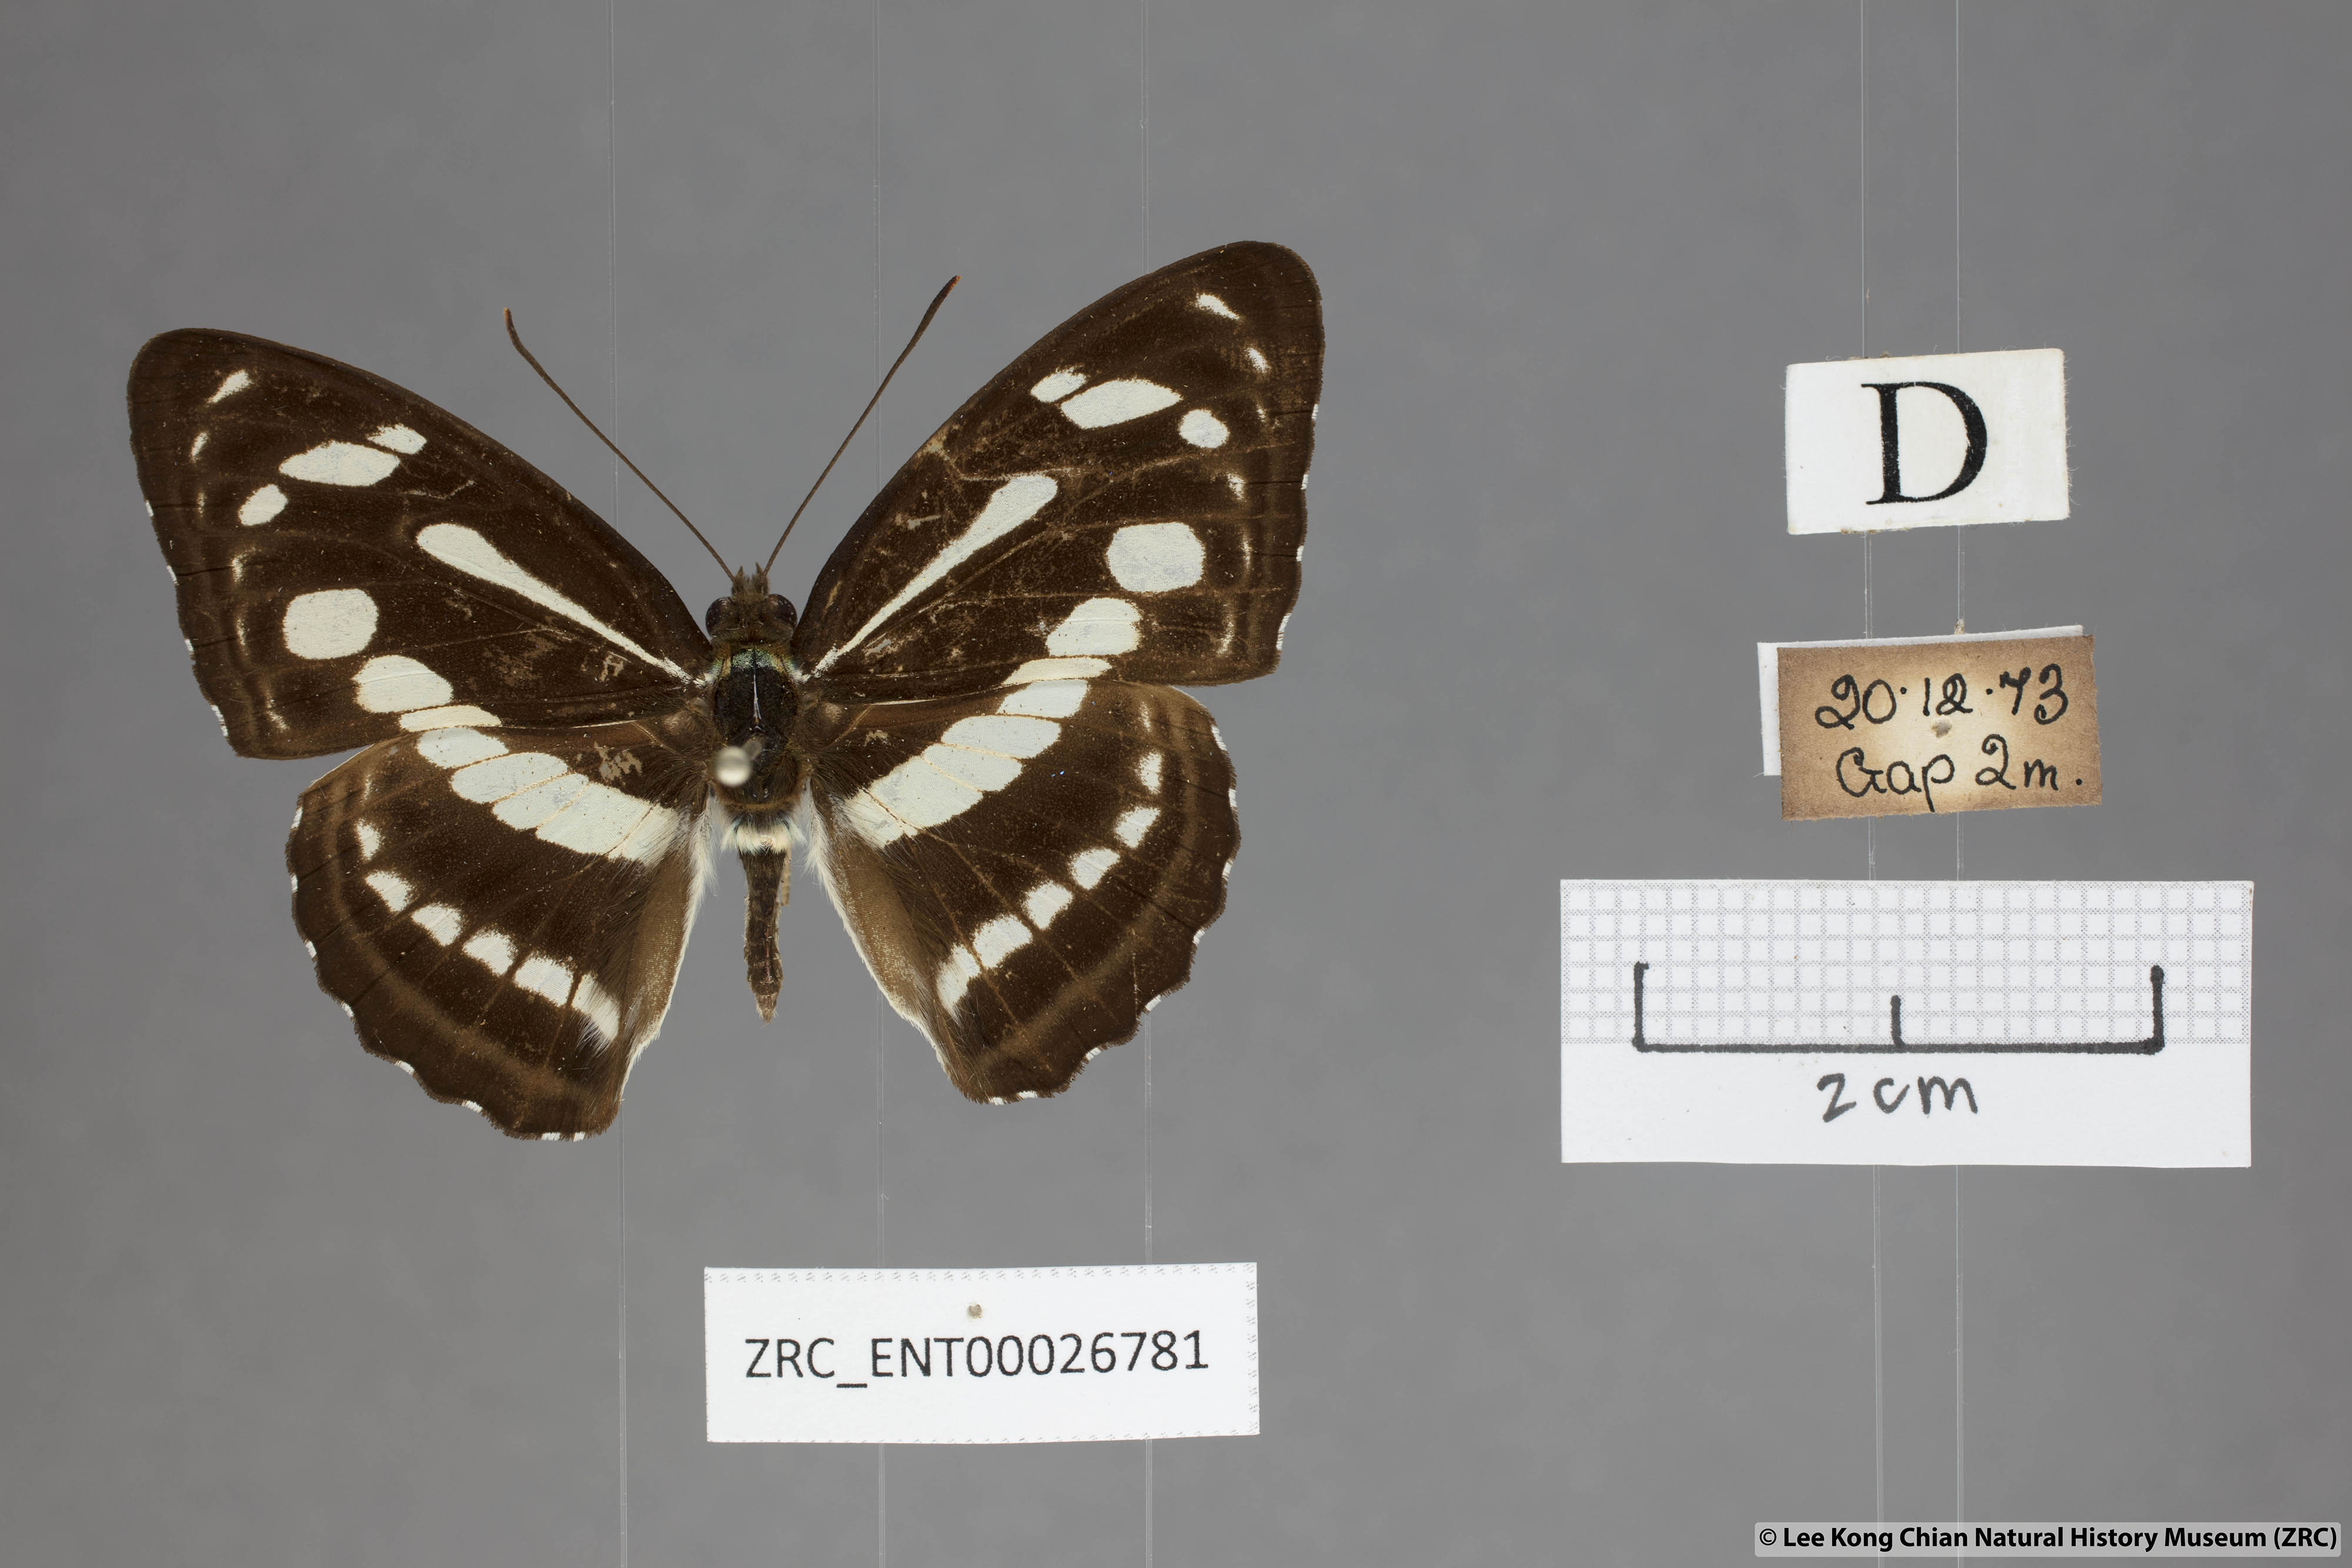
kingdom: Animalia
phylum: Arthropoda
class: Insecta
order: Lepidoptera
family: Nymphalidae
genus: Parathyma
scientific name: Parathyma pravara
